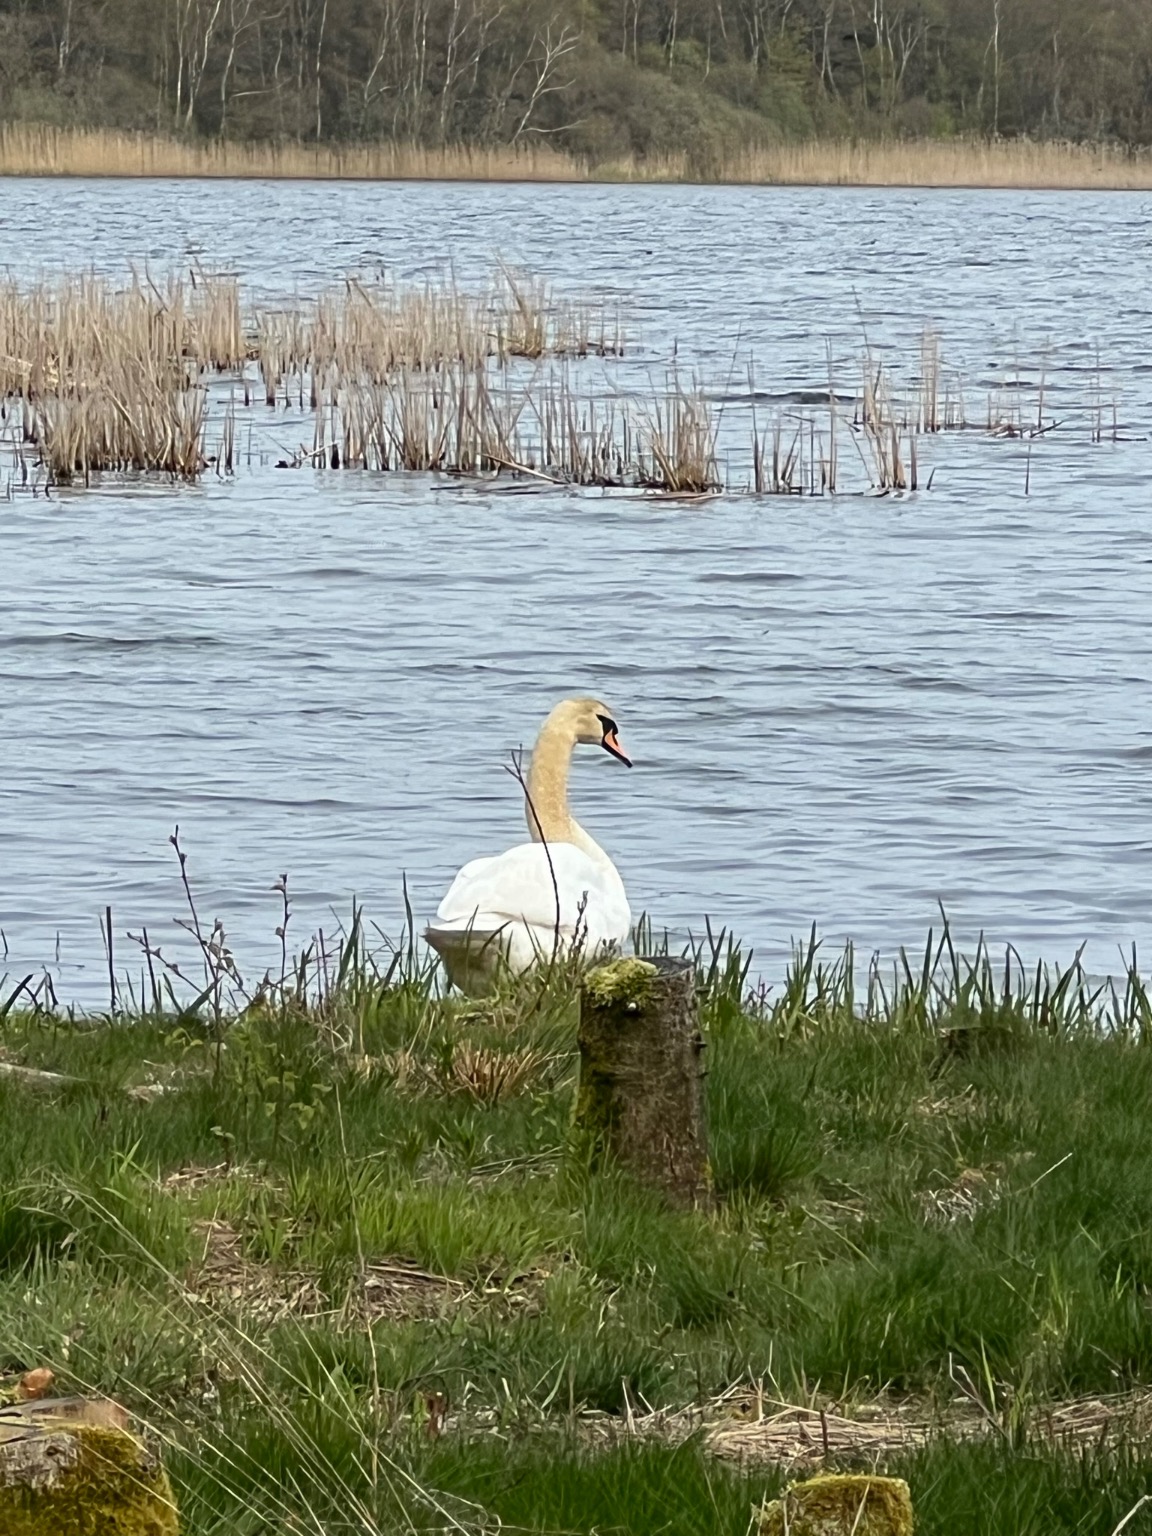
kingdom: Animalia
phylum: Chordata
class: Aves
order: Anseriformes
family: Anatidae
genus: Cygnus
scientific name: Cygnus olor
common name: Knopsvane
